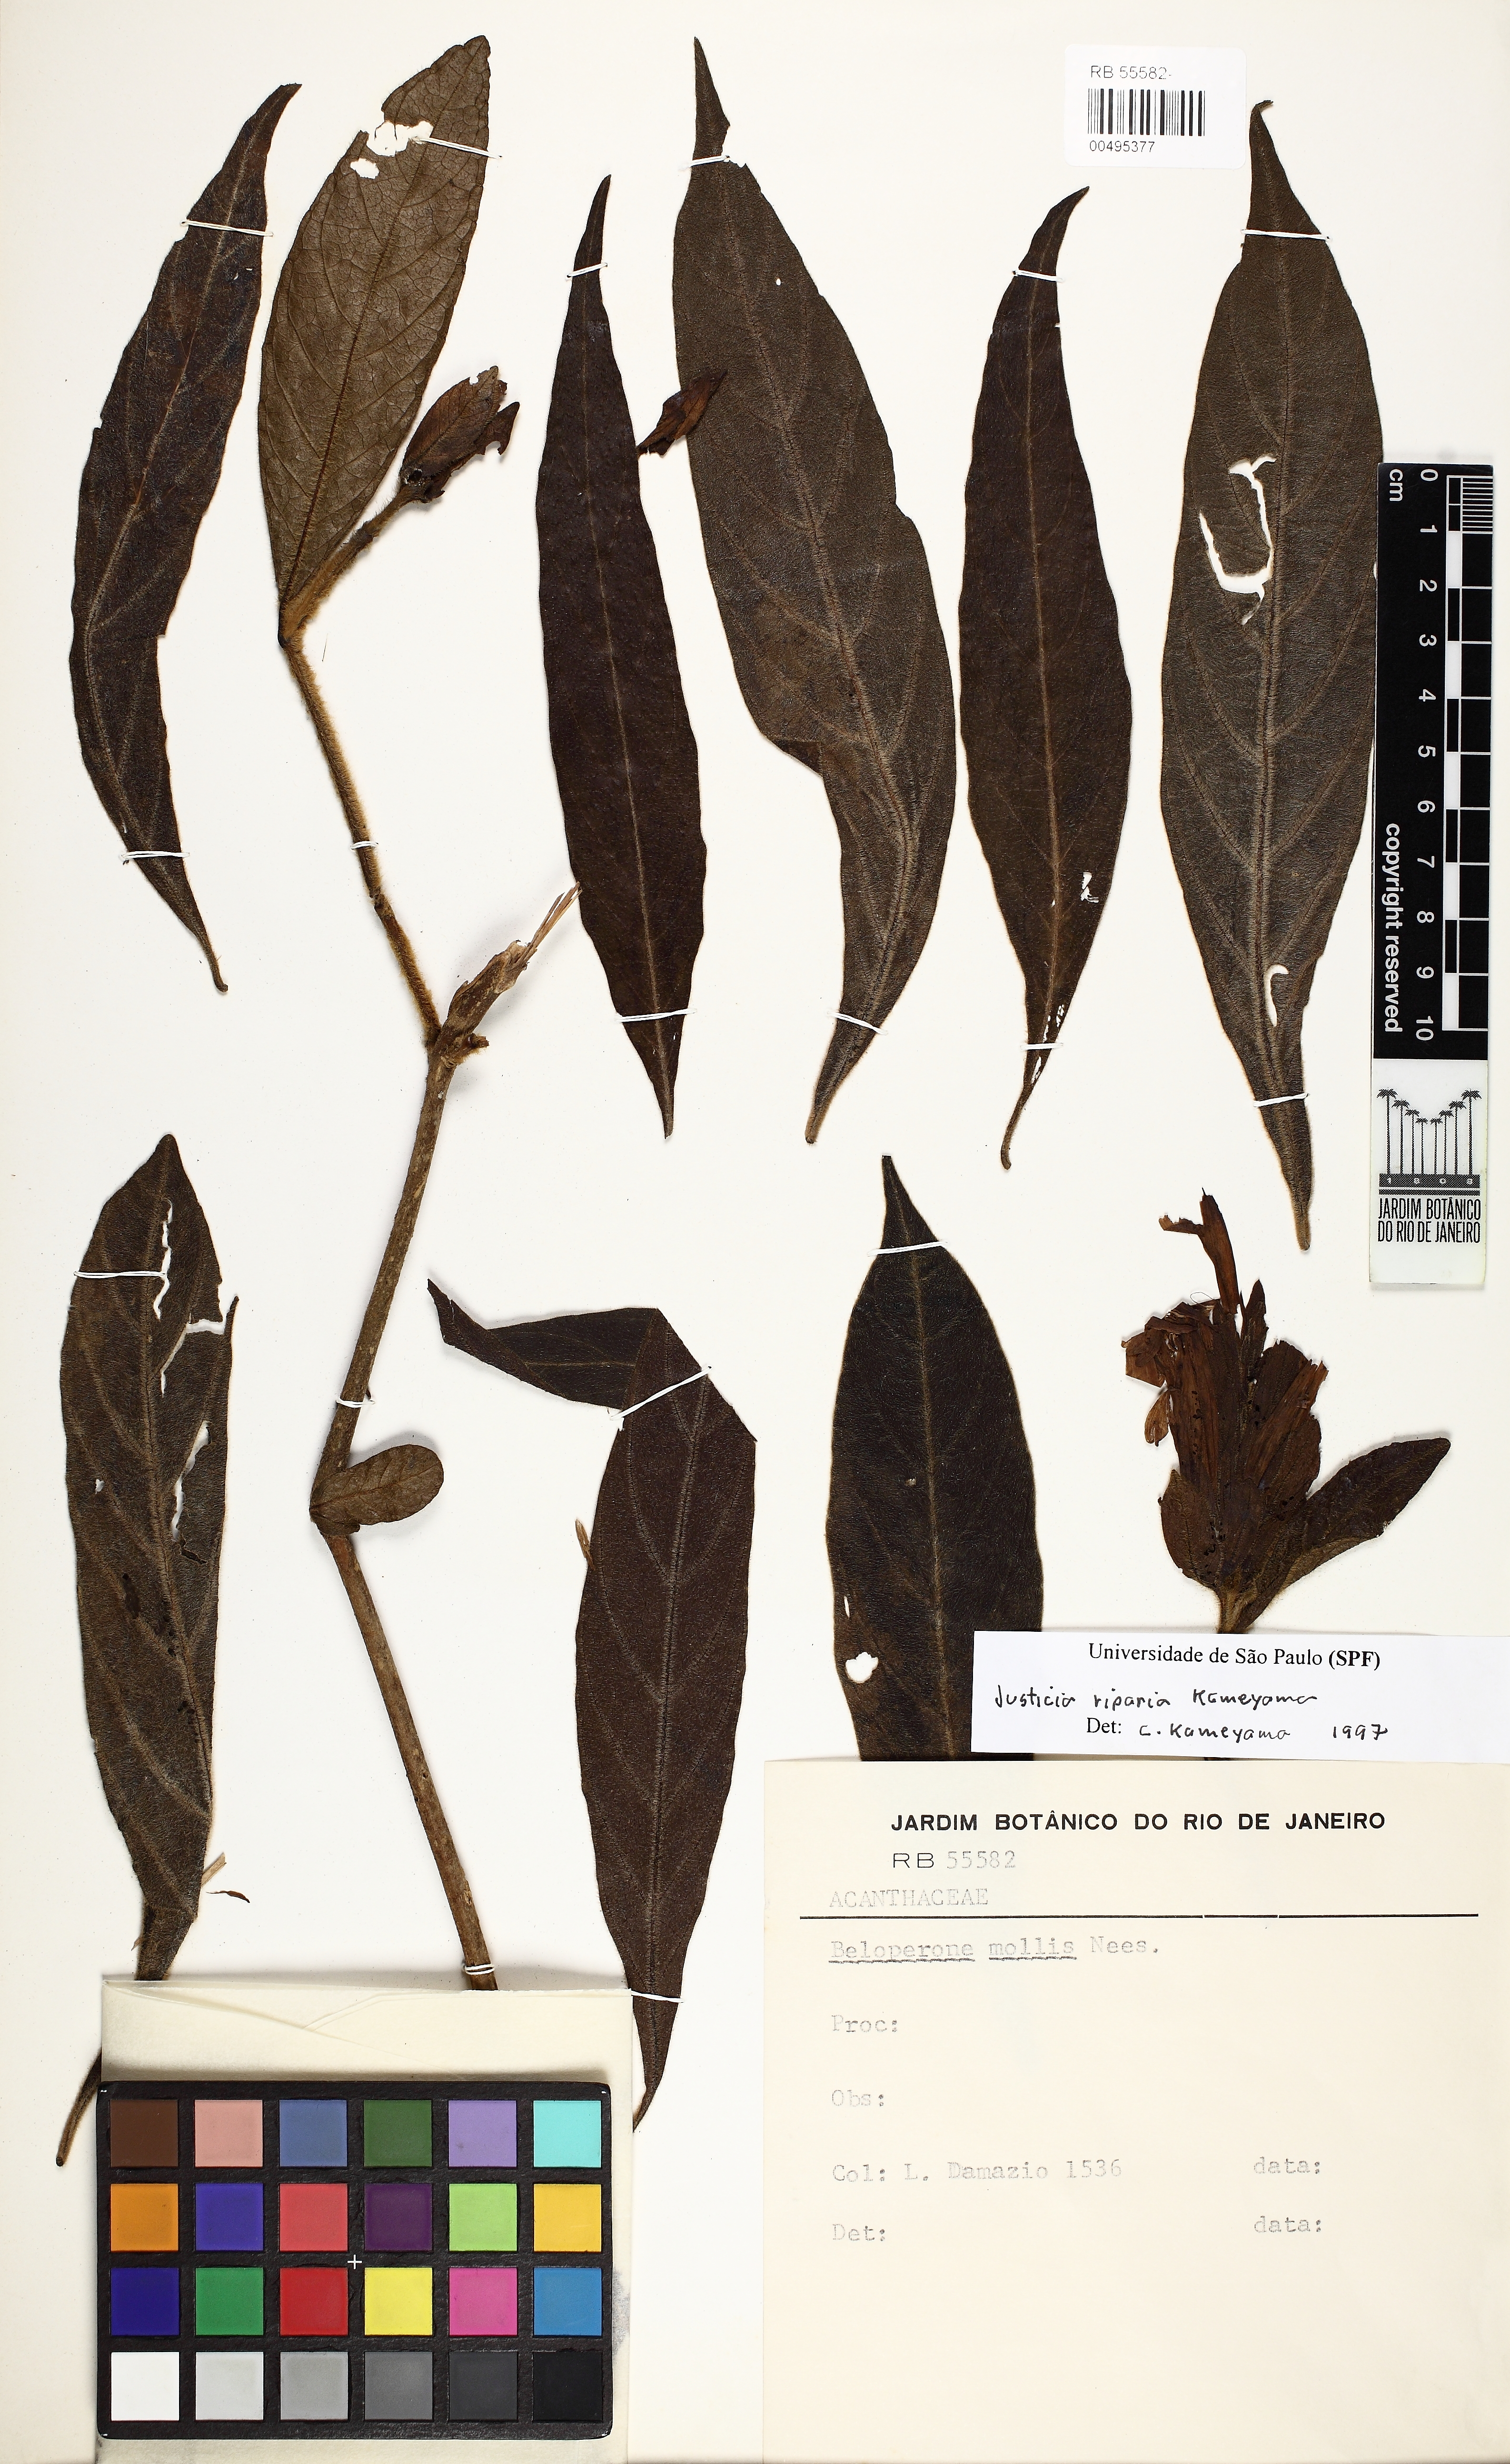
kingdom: Plantae
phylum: Tracheophyta
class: Magnoliopsida
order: Lamiales
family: Acanthaceae
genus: Justicia
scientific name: Justicia pohliana
